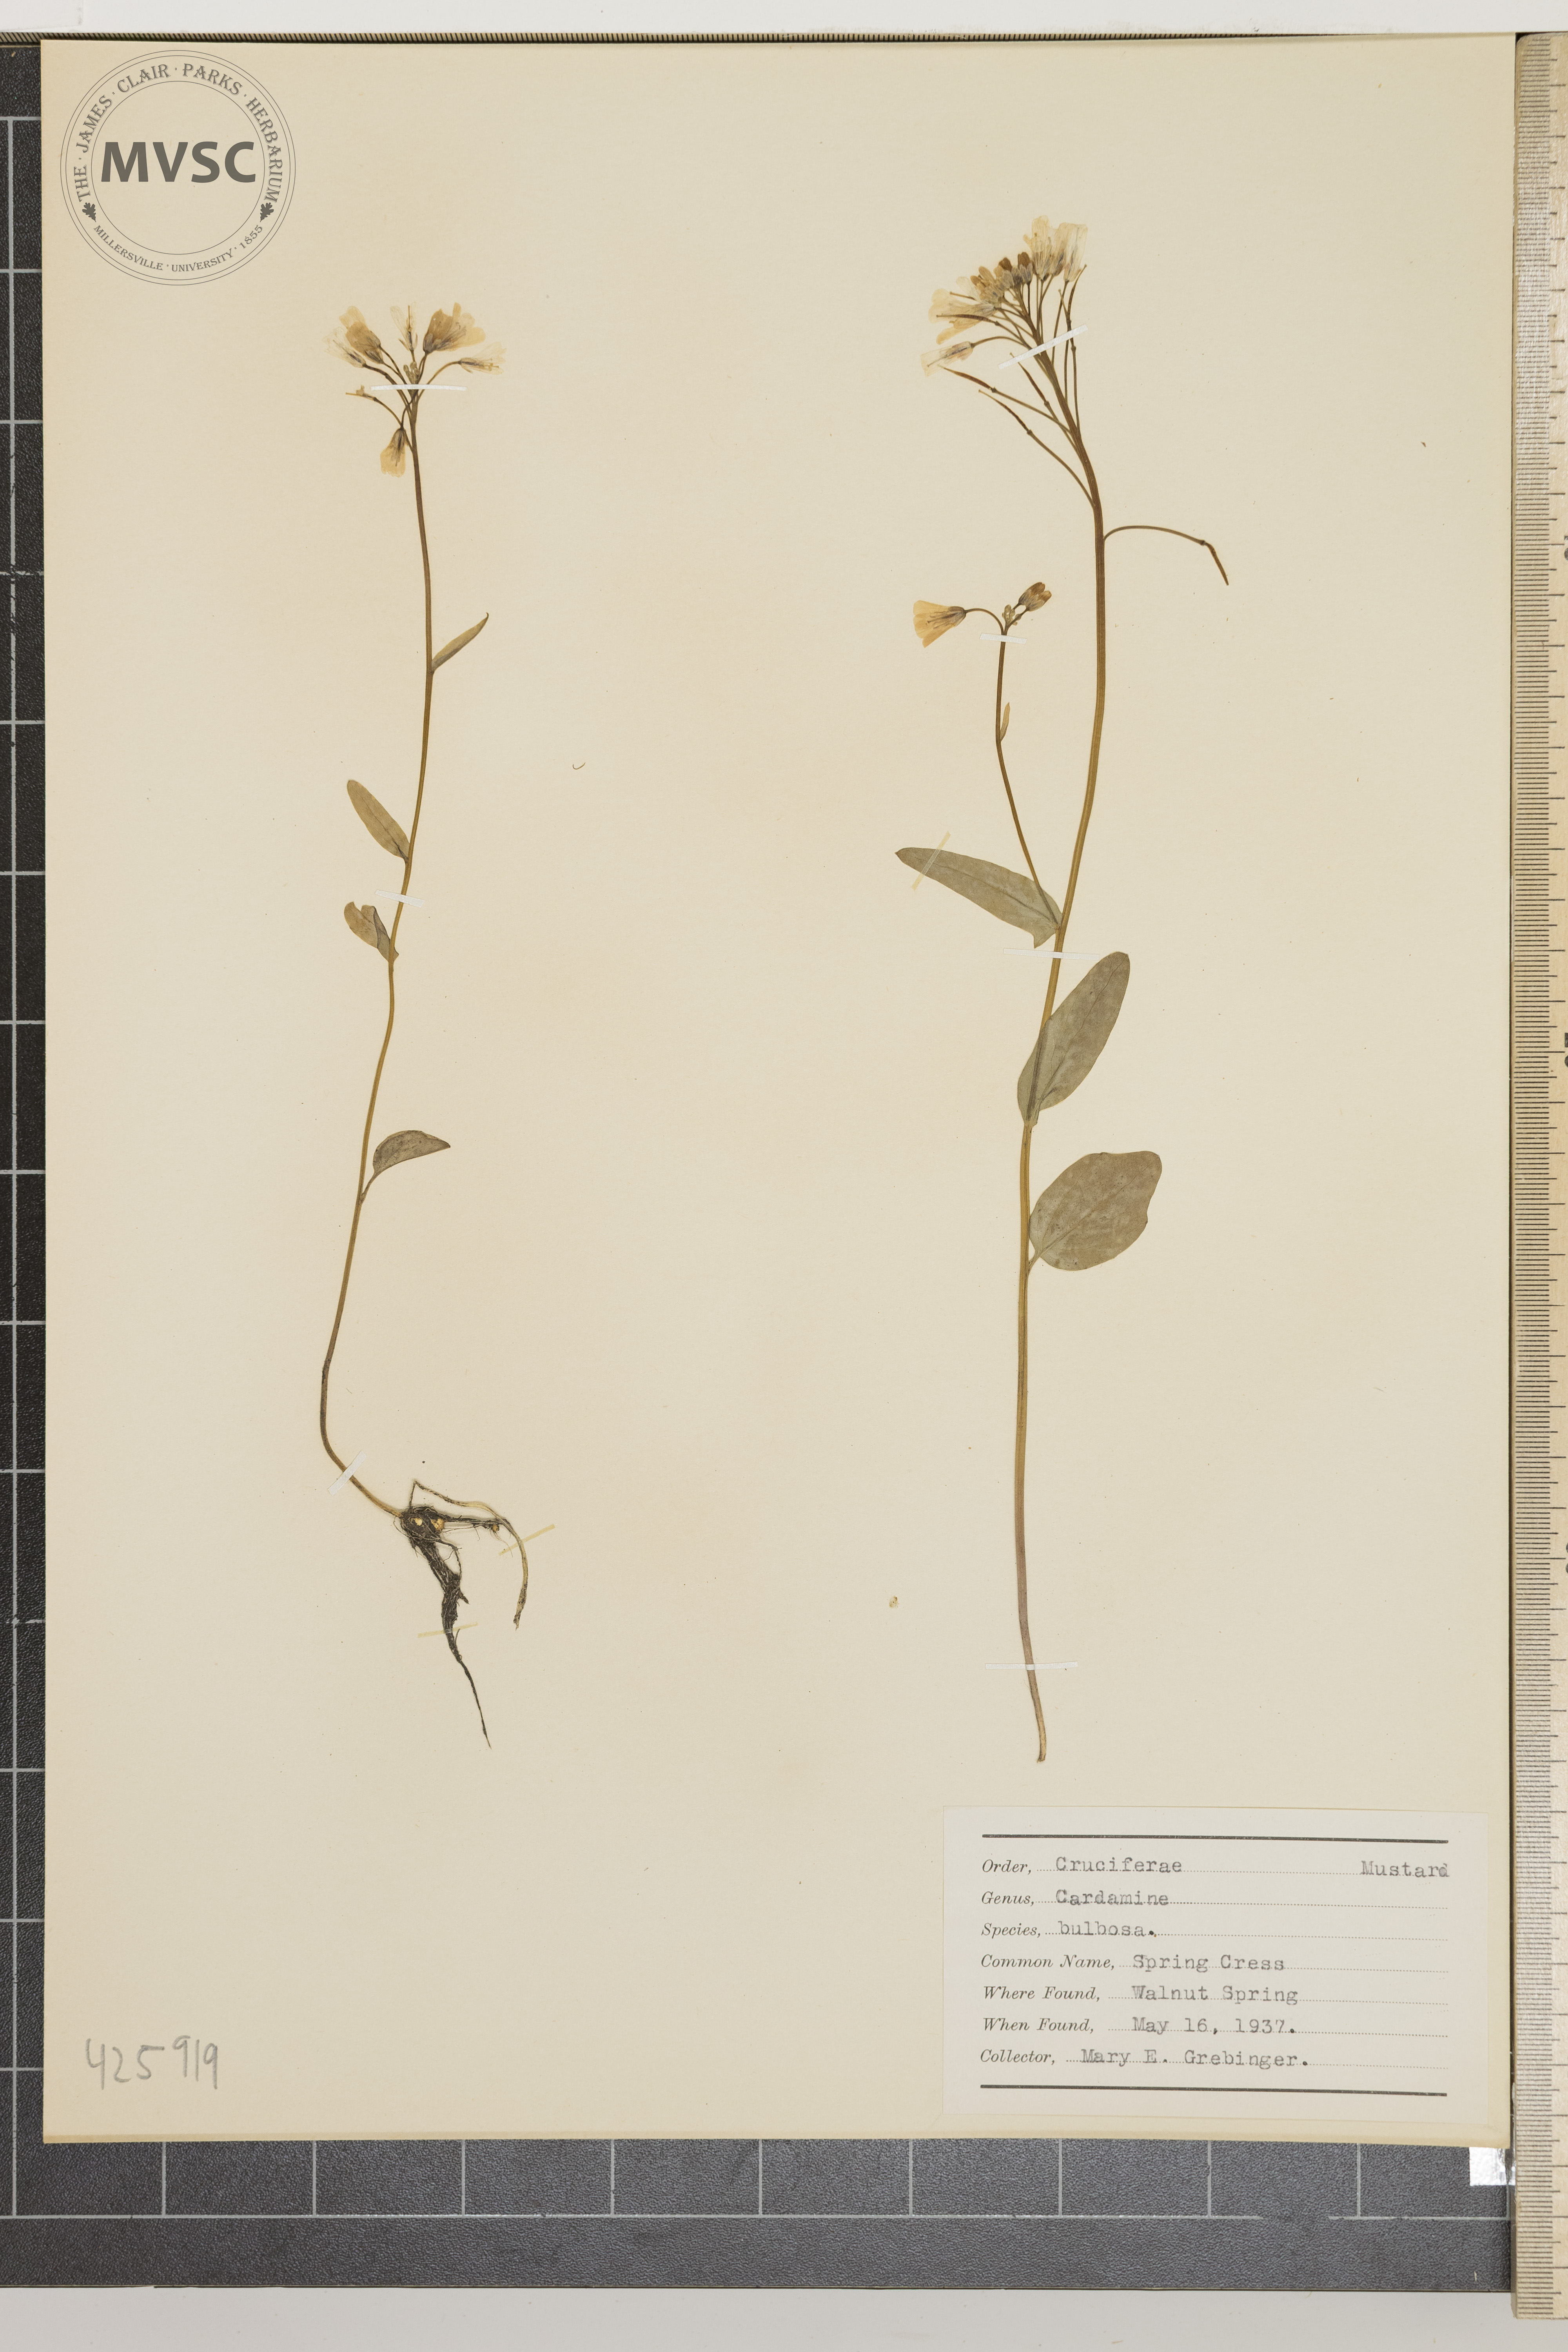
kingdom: Plantae
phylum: Tracheophyta
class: Magnoliopsida
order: Brassicales
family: Brassicaceae
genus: Cardamine
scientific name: Cardamine bulbosa
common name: Spring cress
